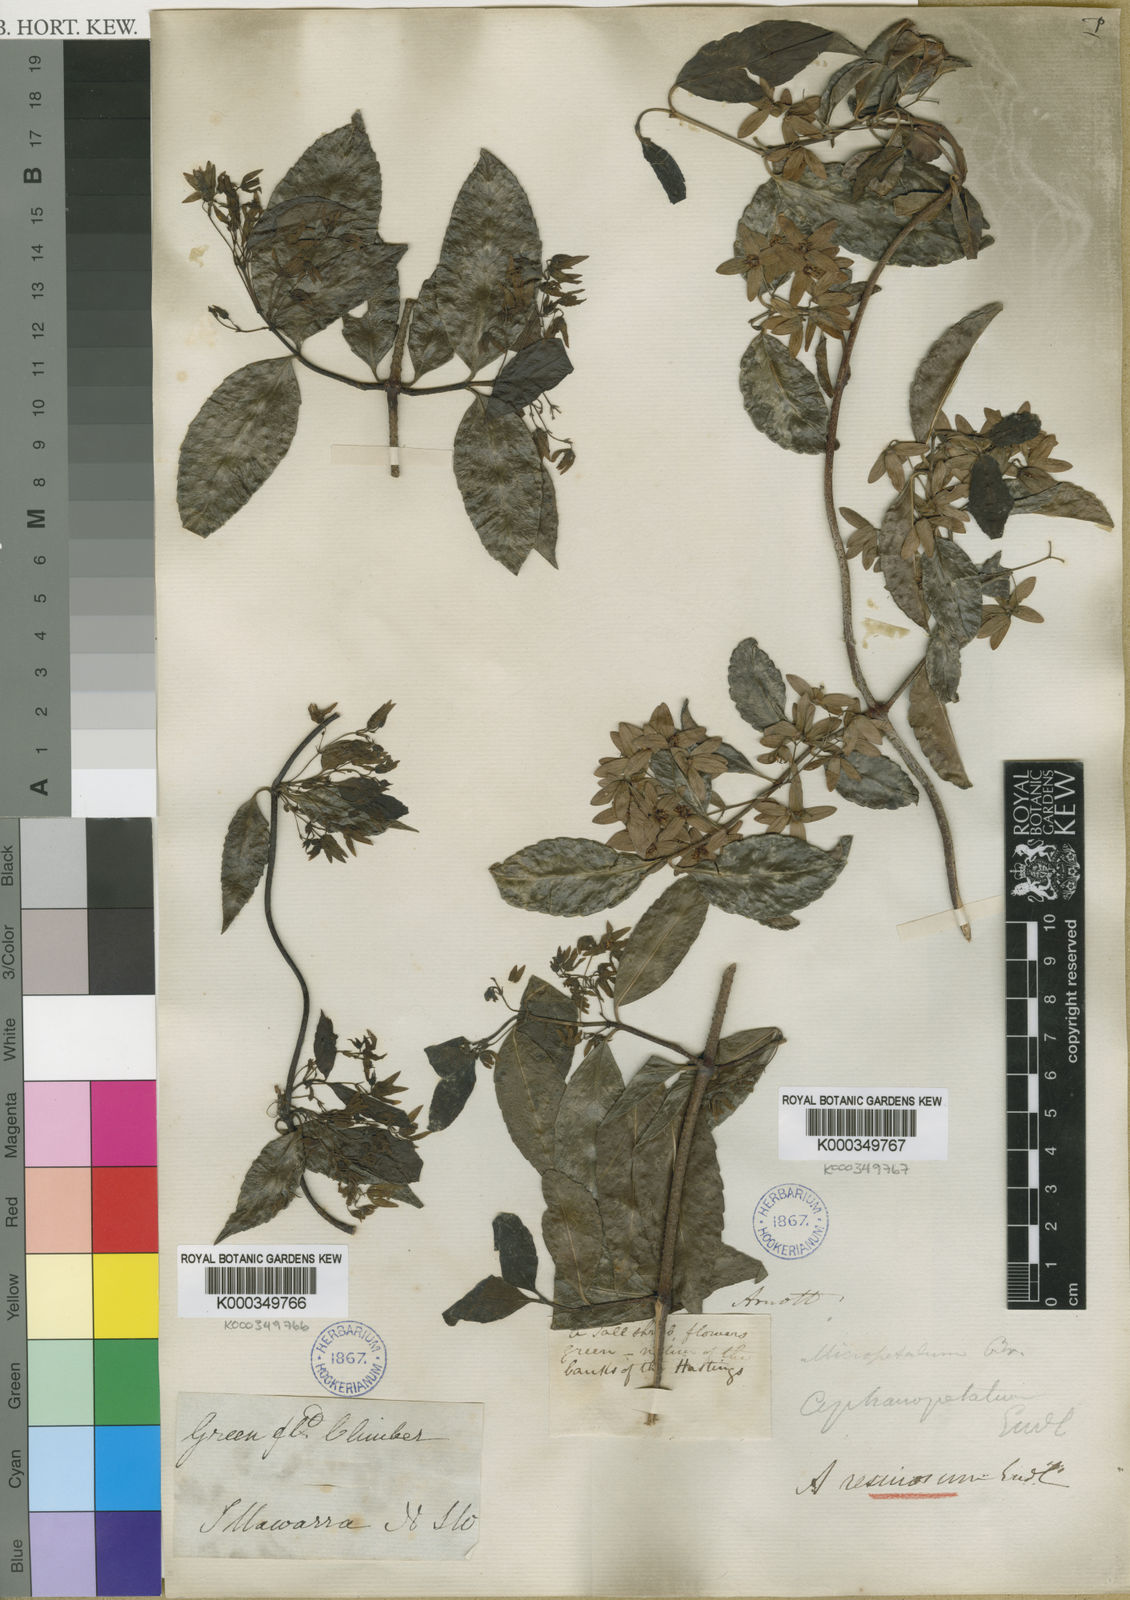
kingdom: Plantae
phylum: Tracheophyta
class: Magnoliopsida
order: Saxifragales
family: Aphanopetalaceae
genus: Aphanopetalum
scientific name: Aphanopetalum resinosum
